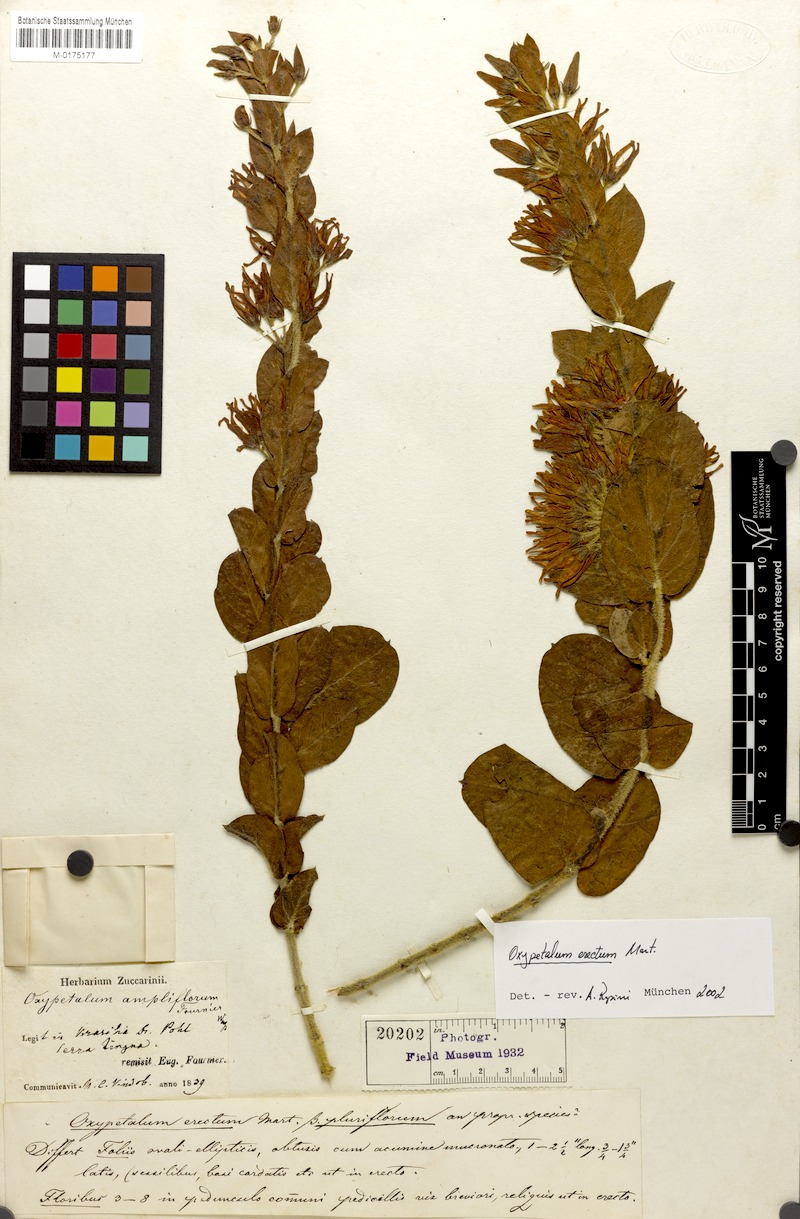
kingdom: Plantae
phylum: Tracheophyta
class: Magnoliopsida
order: Gentianales
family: Apocynaceae
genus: Oxypetalum
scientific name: Oxypetalum erectum
